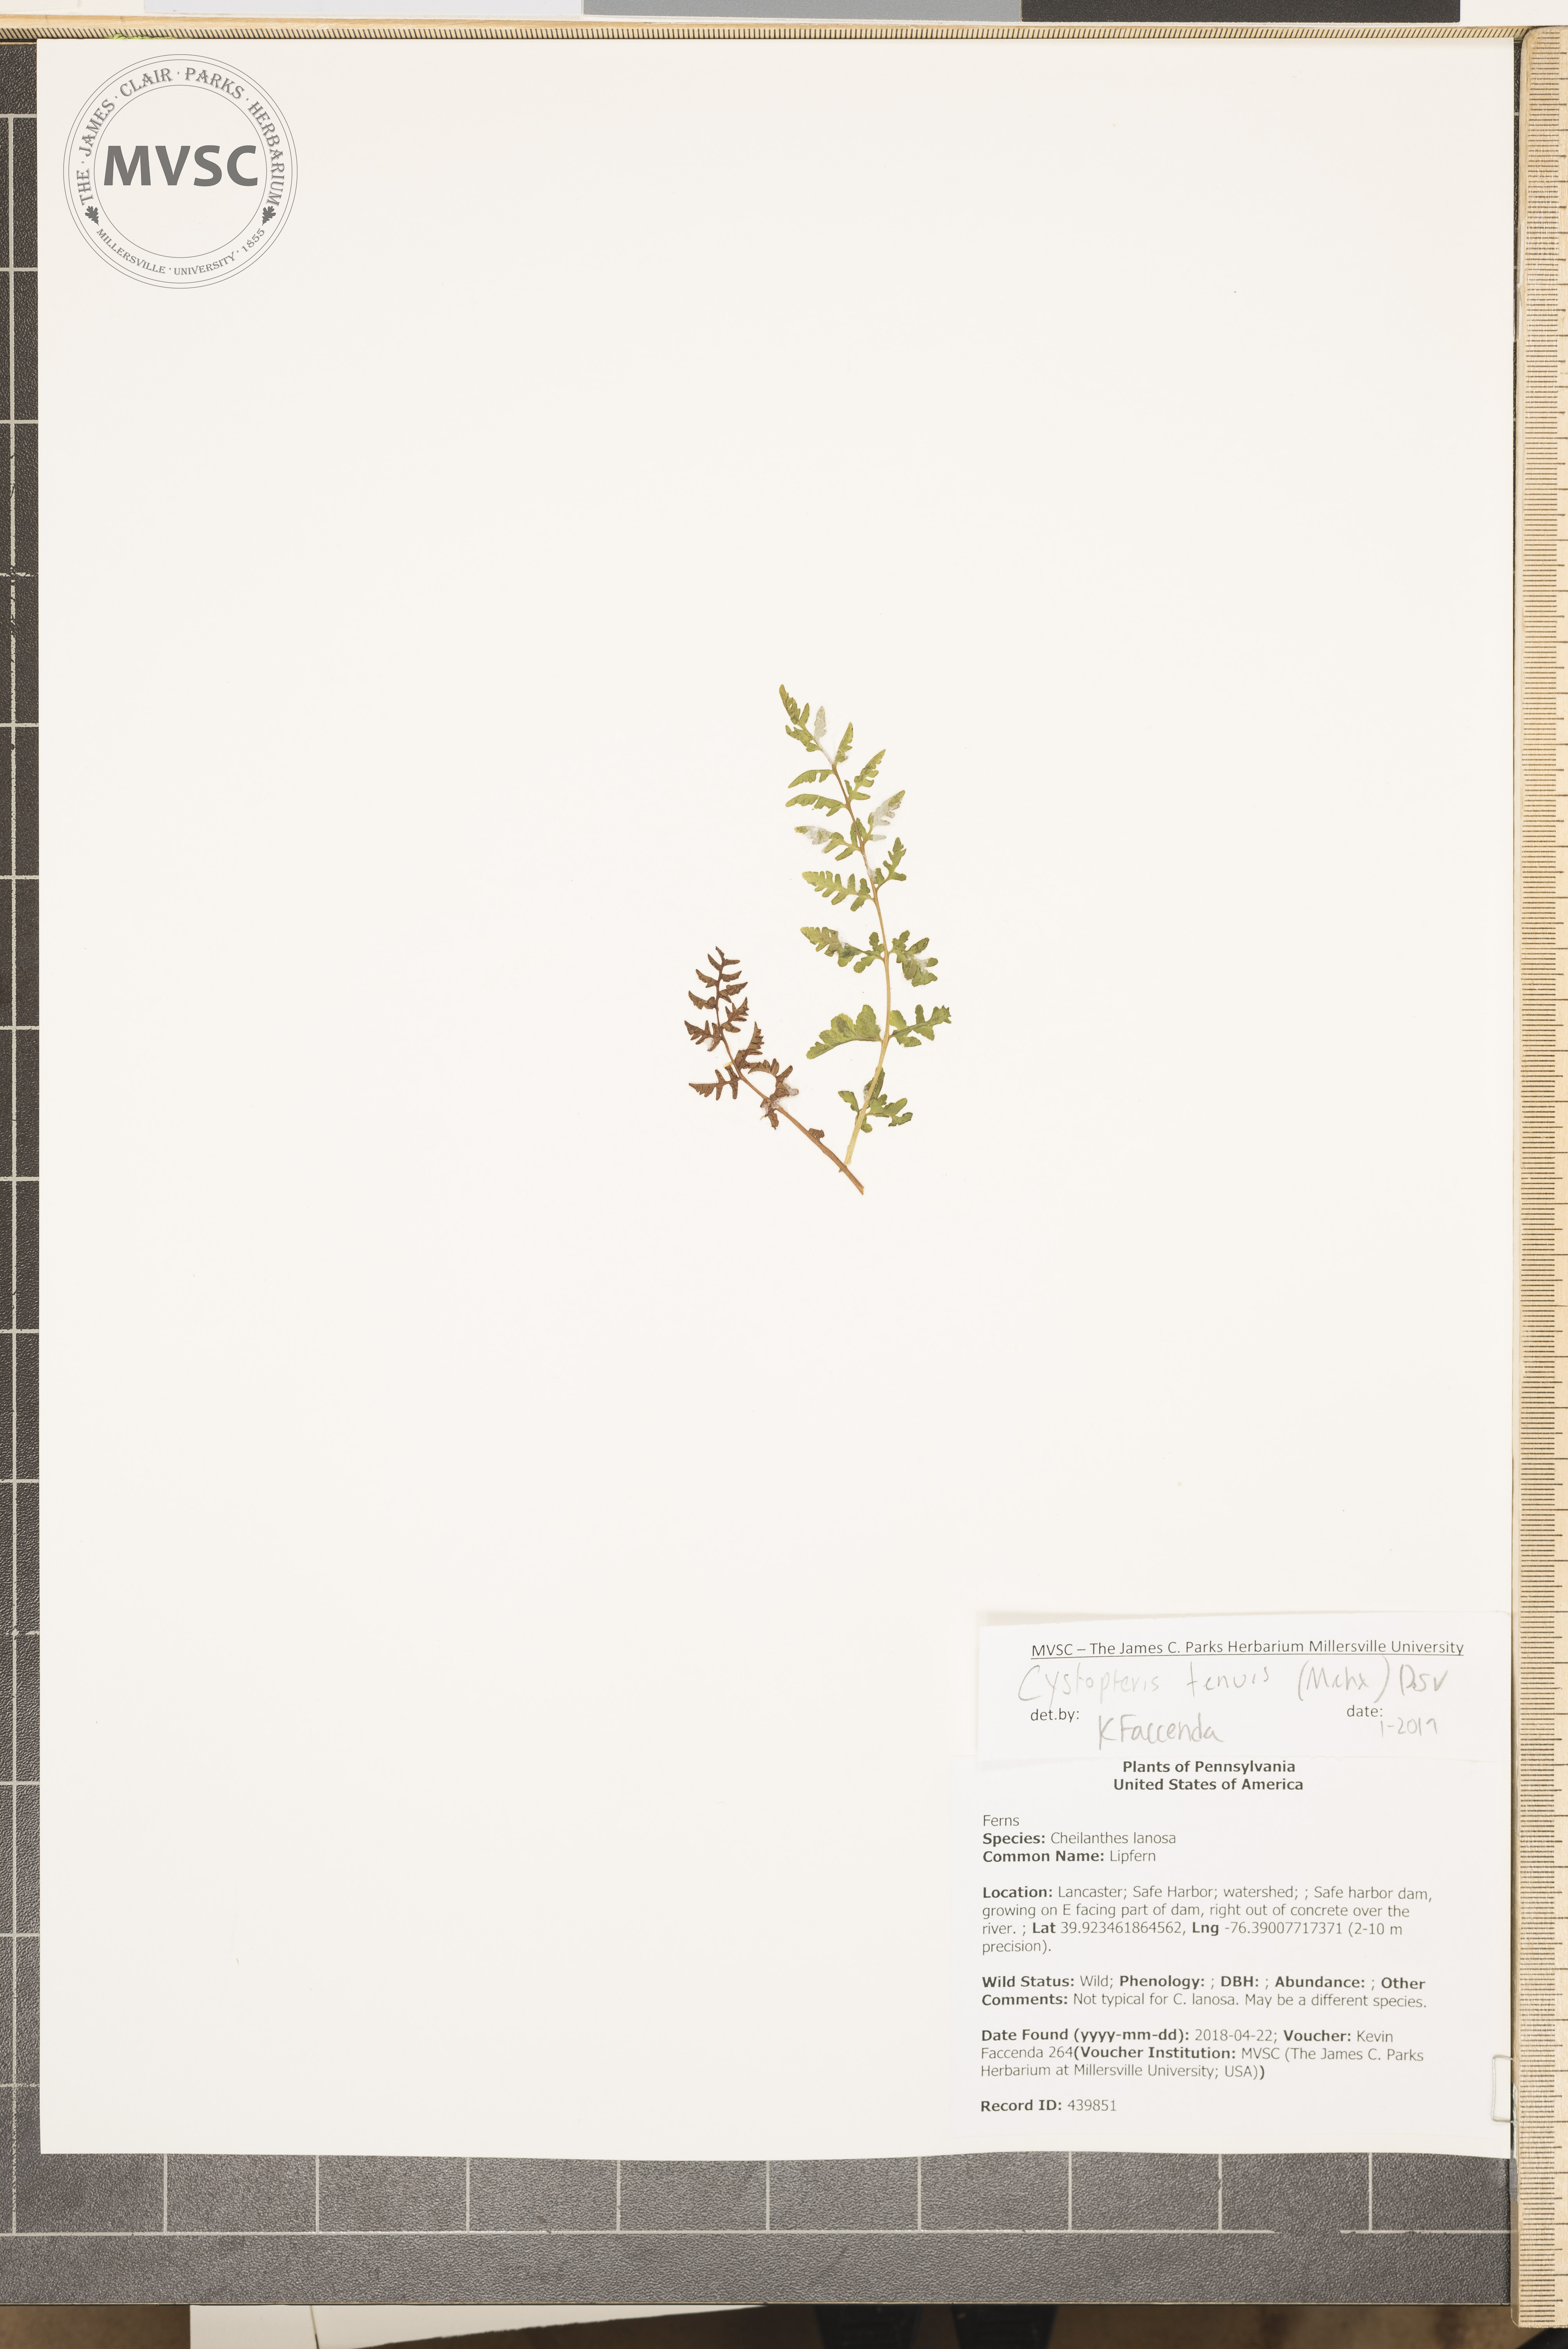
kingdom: Plantae
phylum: Tracheophyta
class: Polypodiopsida
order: Polypodiales
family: Cystopteridaceae
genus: Cystopteris
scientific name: Cystopteris tenuis
